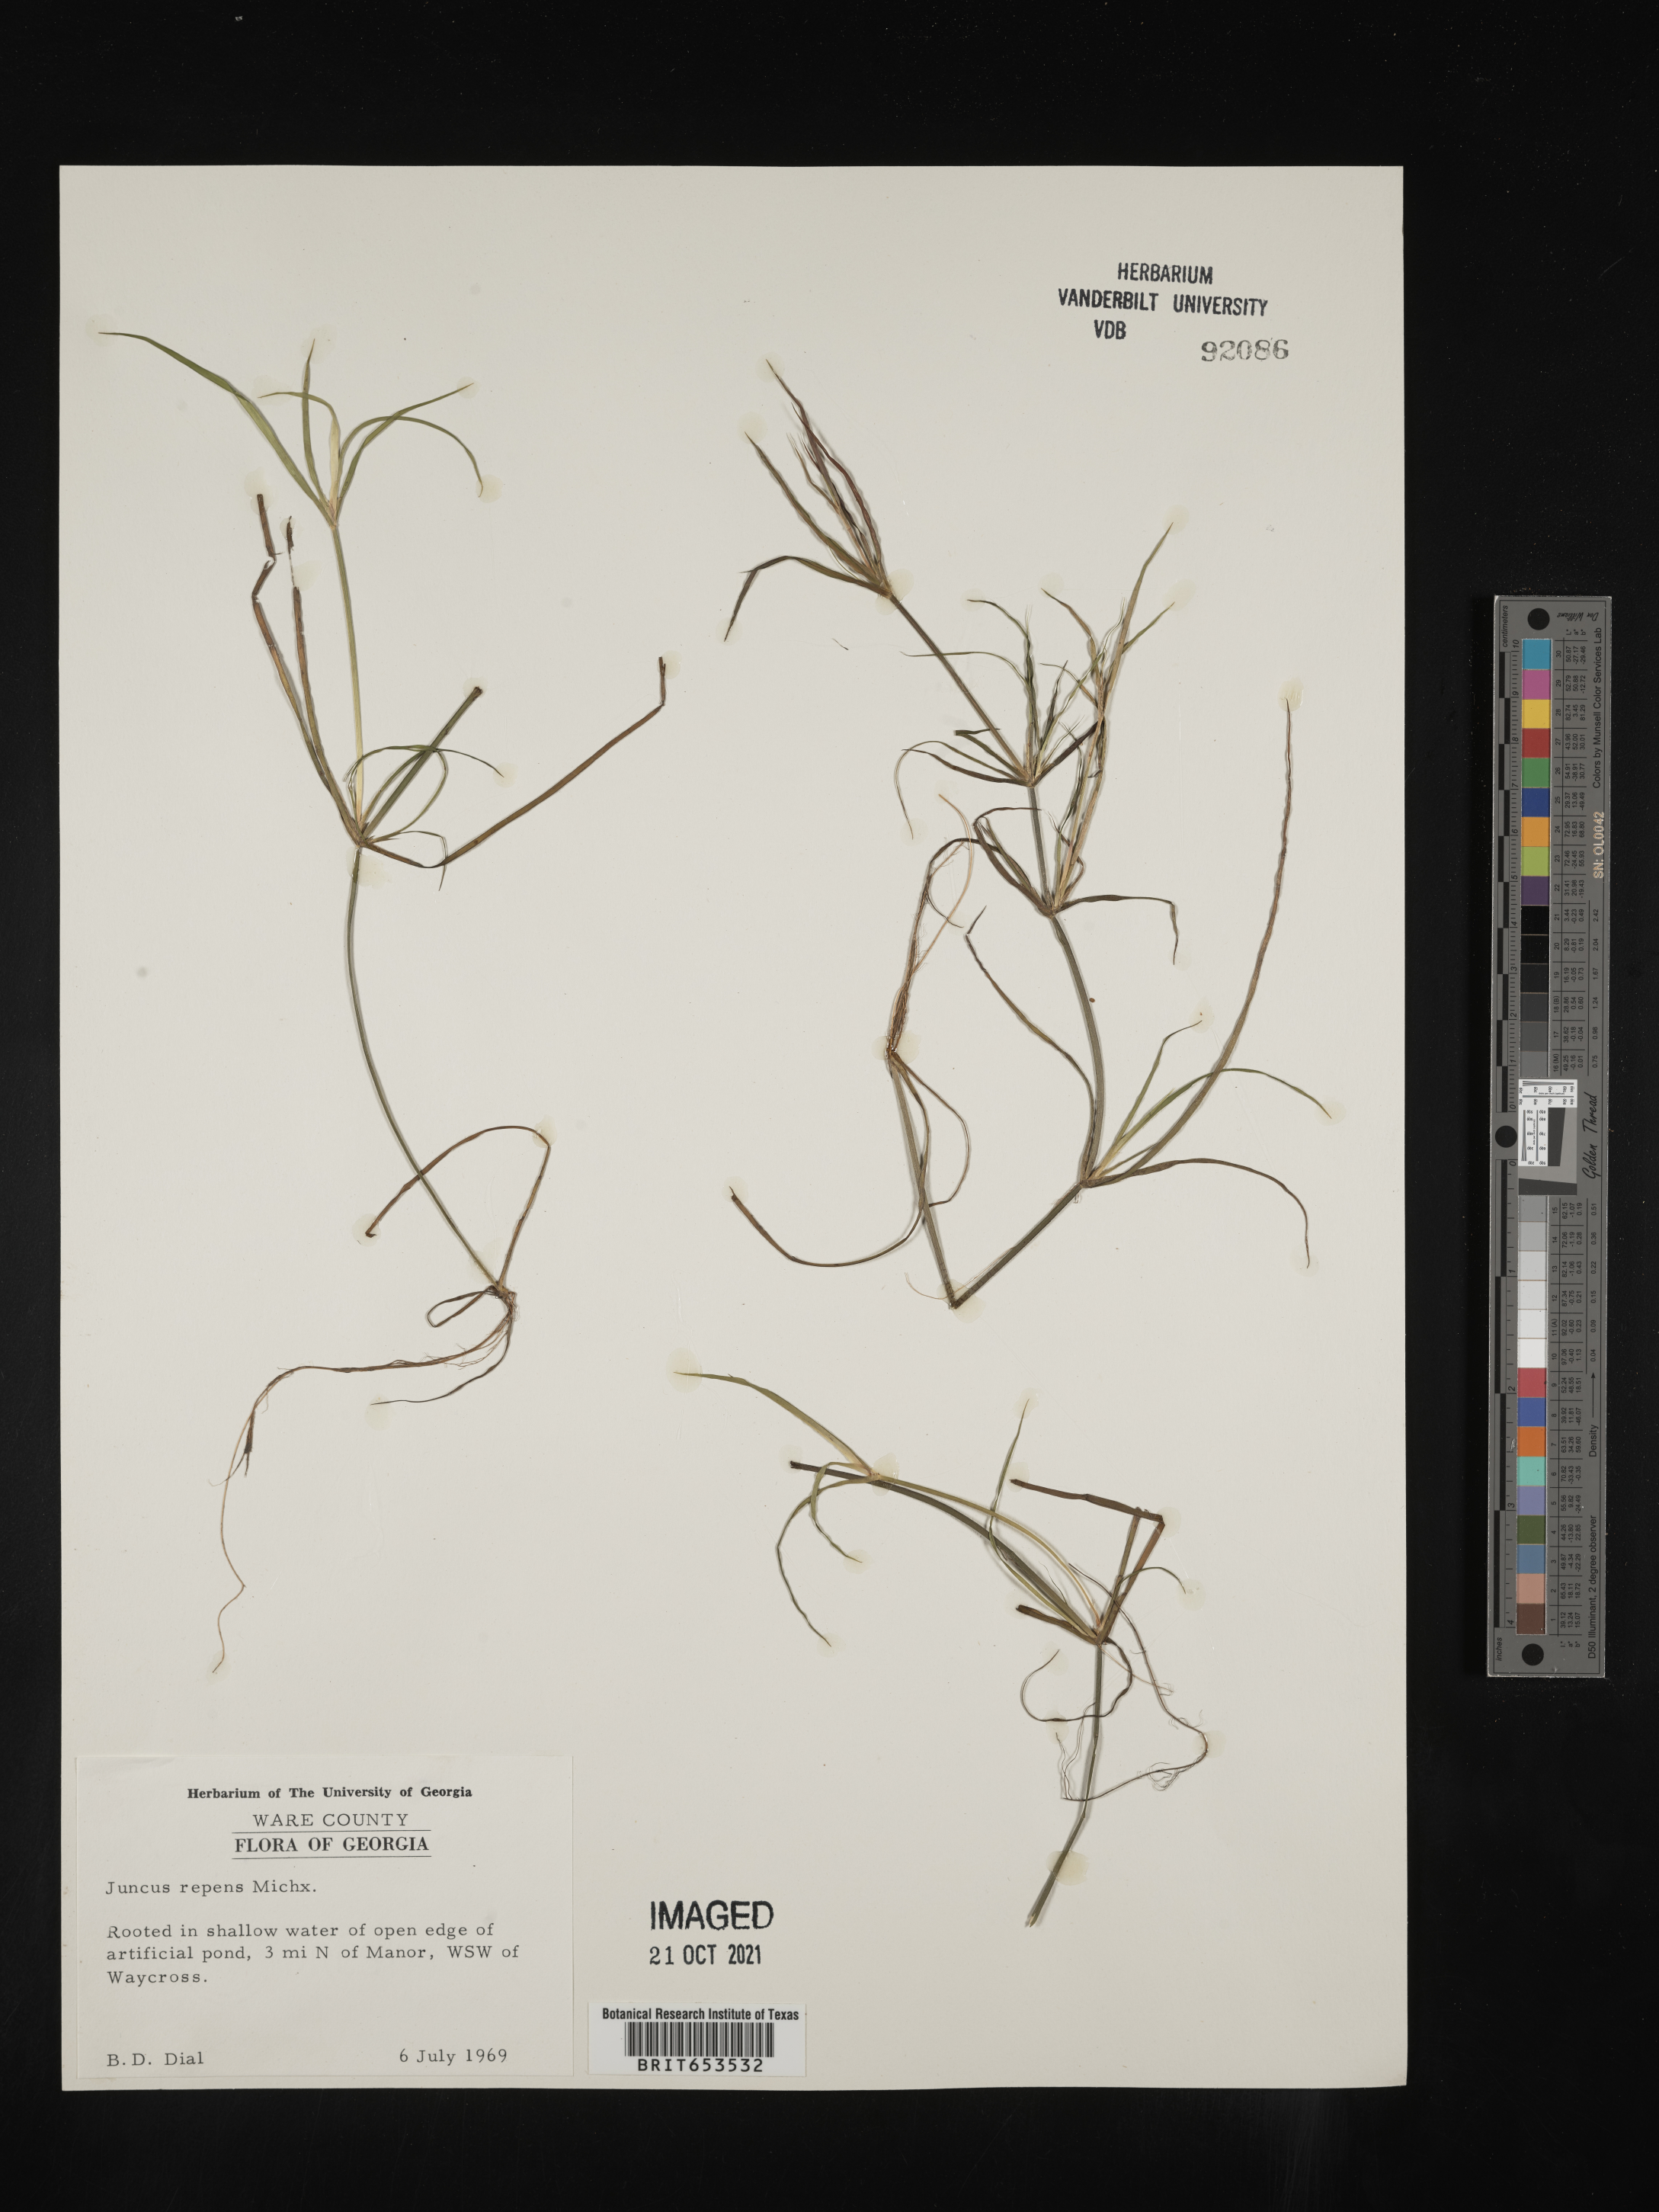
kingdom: Plantae
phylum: Tracheophyta
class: Liliopsida
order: Poales
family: Juncaceae
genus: Juncus
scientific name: Juncus repens
